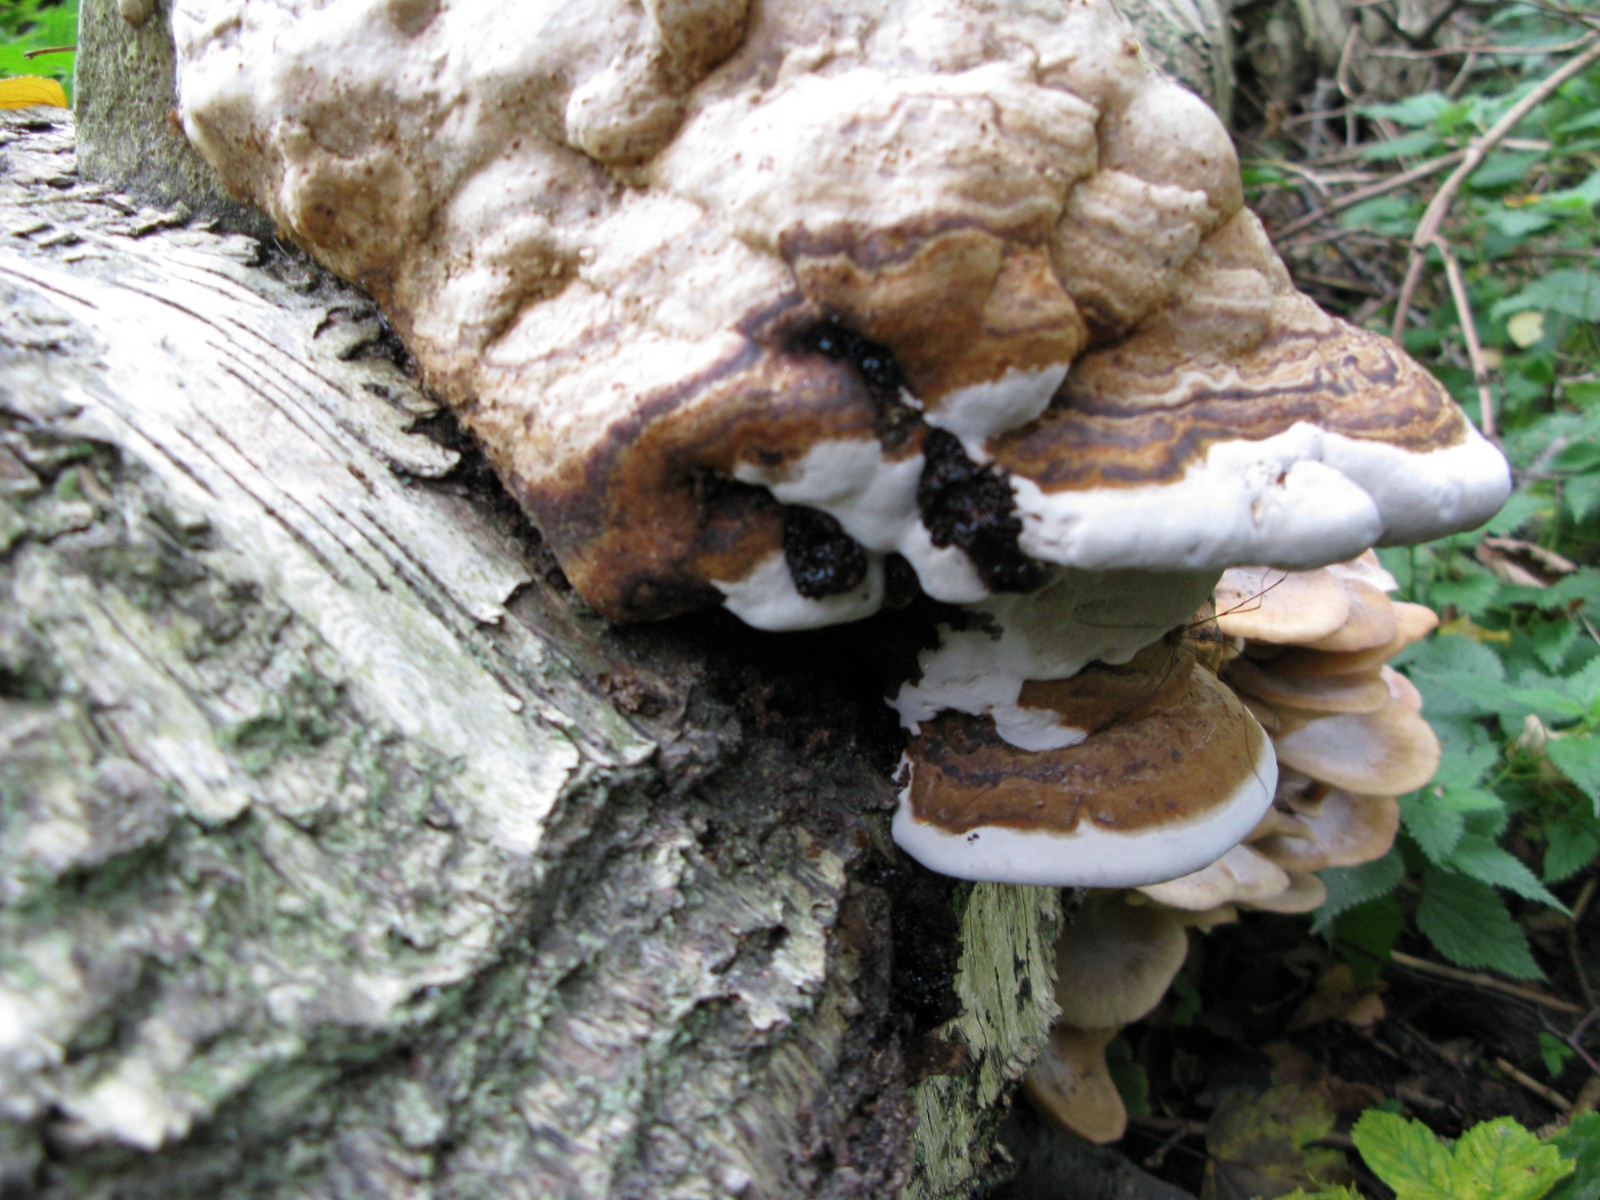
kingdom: Fungi
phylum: Basidiomycota
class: Agaricomycetes
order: Polyporales
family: Polyporaceae
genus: Fomes
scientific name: Fomes fomentarius
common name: tøndersvamp
